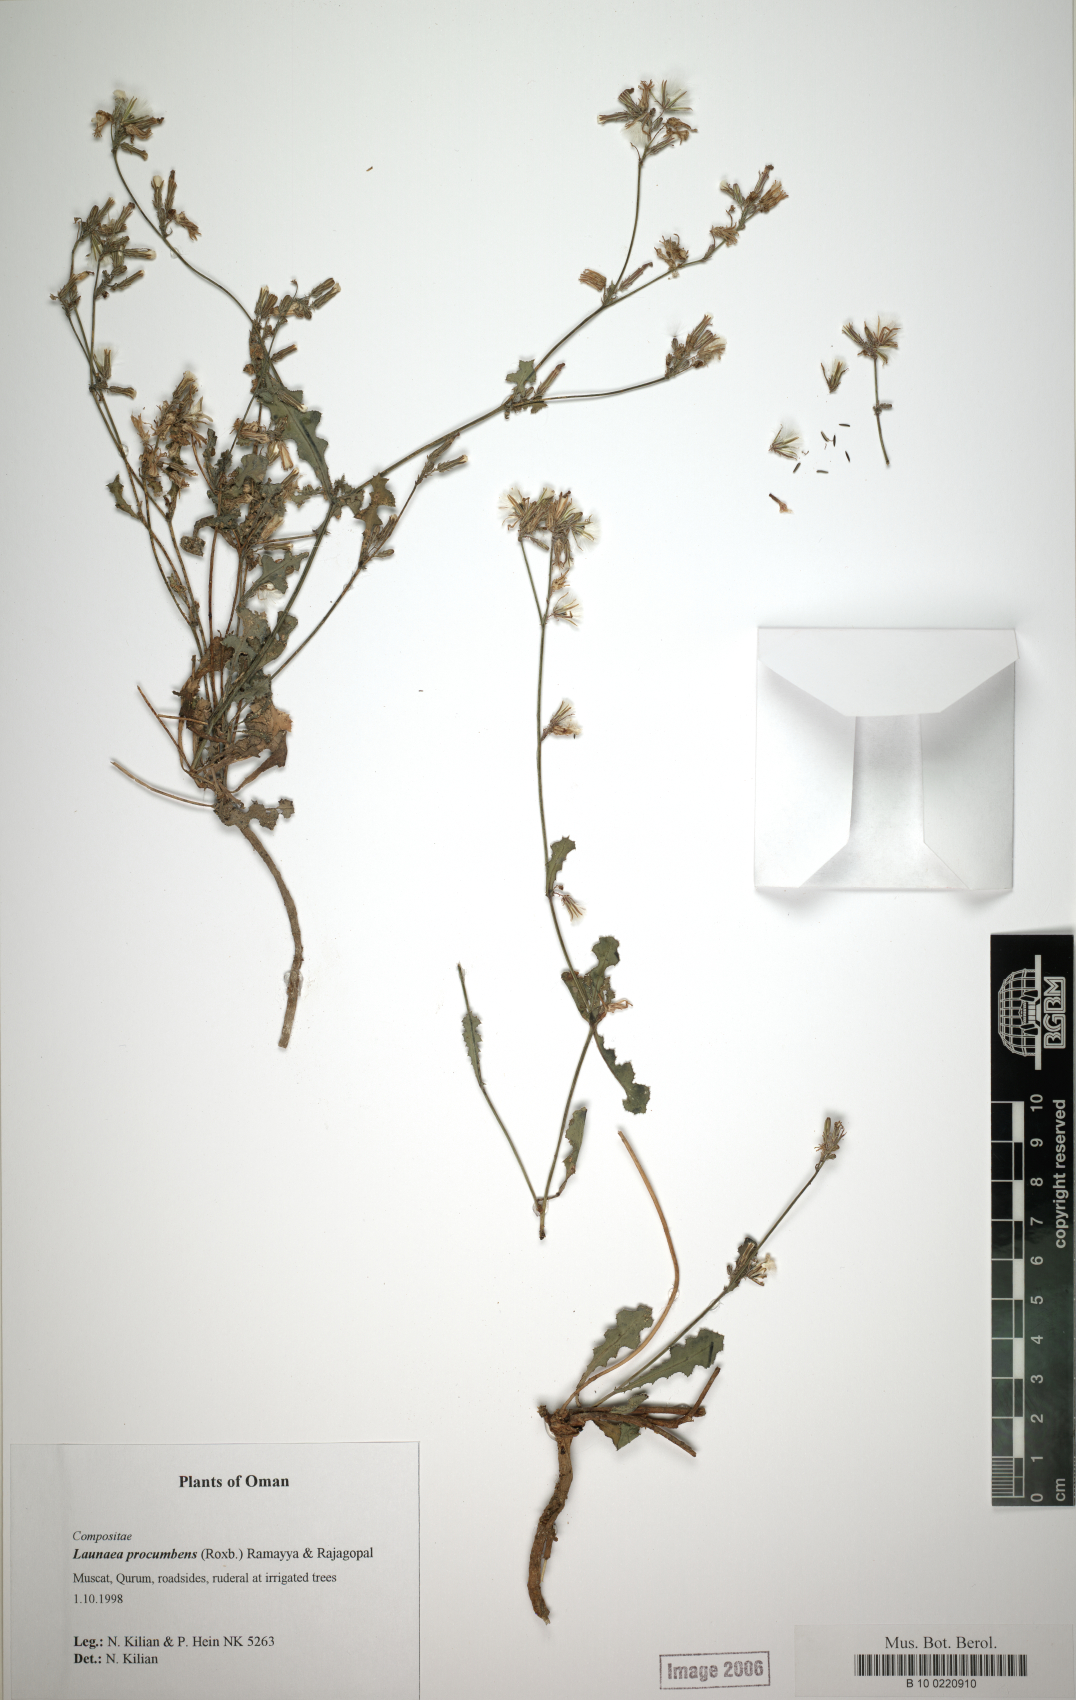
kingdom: Plantae
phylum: Tracheophyta
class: Magnoliopsida
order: Asterales
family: Asteraceae
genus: Launaea
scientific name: Launaea procumbens
